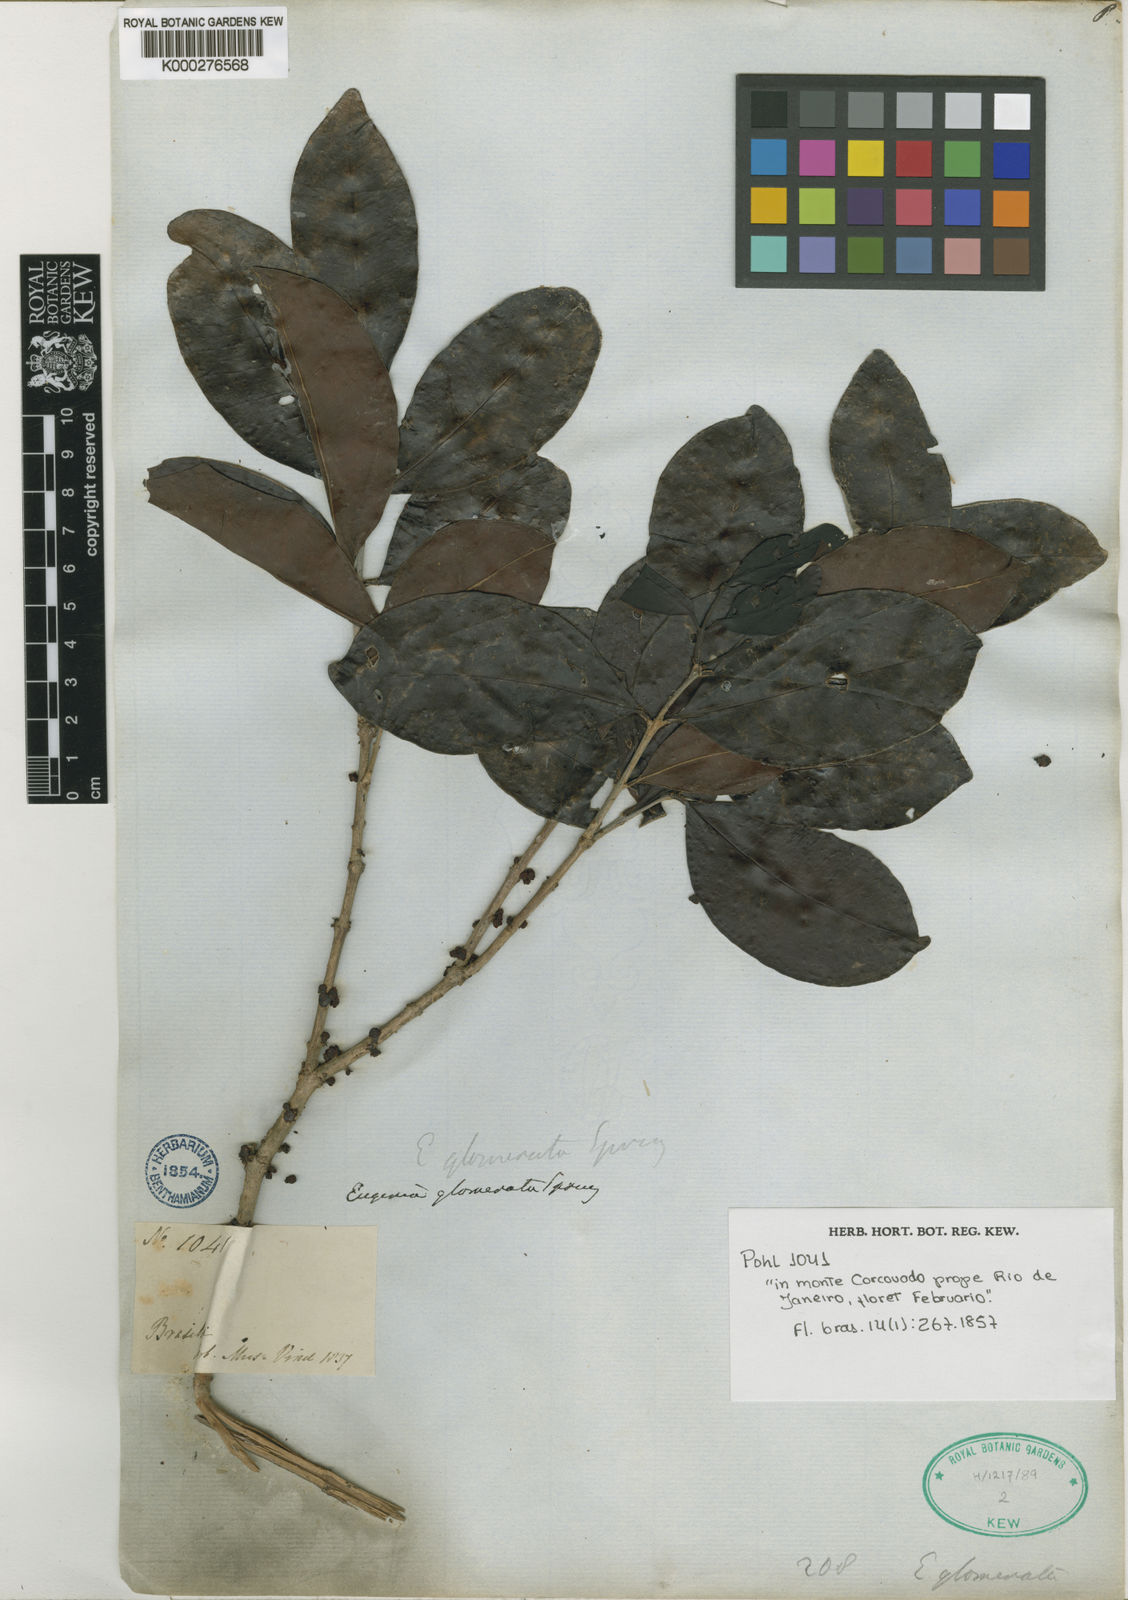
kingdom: Plantae
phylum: Tracheophyta
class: Magnoliopsida
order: Myrtales
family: Myrtaceae
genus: Eugenia
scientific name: Eugenia neoglomerata
